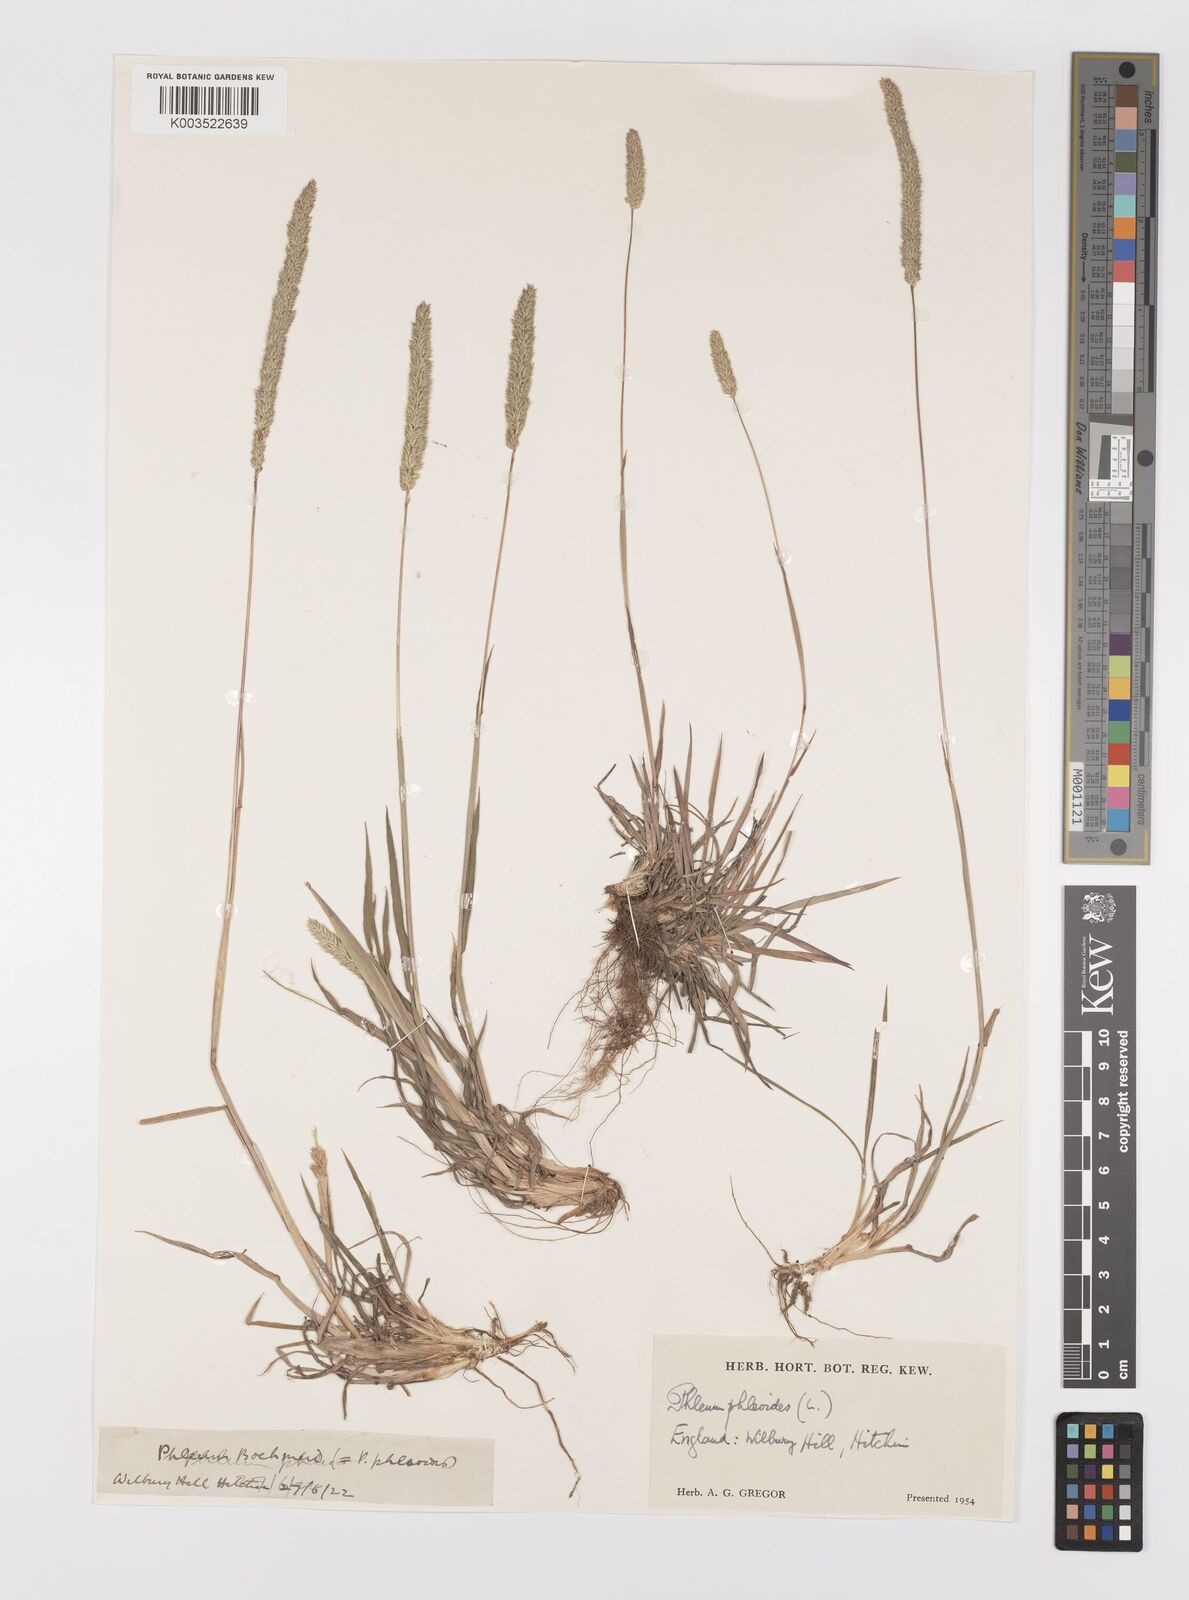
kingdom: Plantae
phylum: Tracheophyta
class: Liliopsida
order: Poales
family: Poaceae
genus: Phleum
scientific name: Phleum phleoides
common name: Purple-stem cat's-tail
